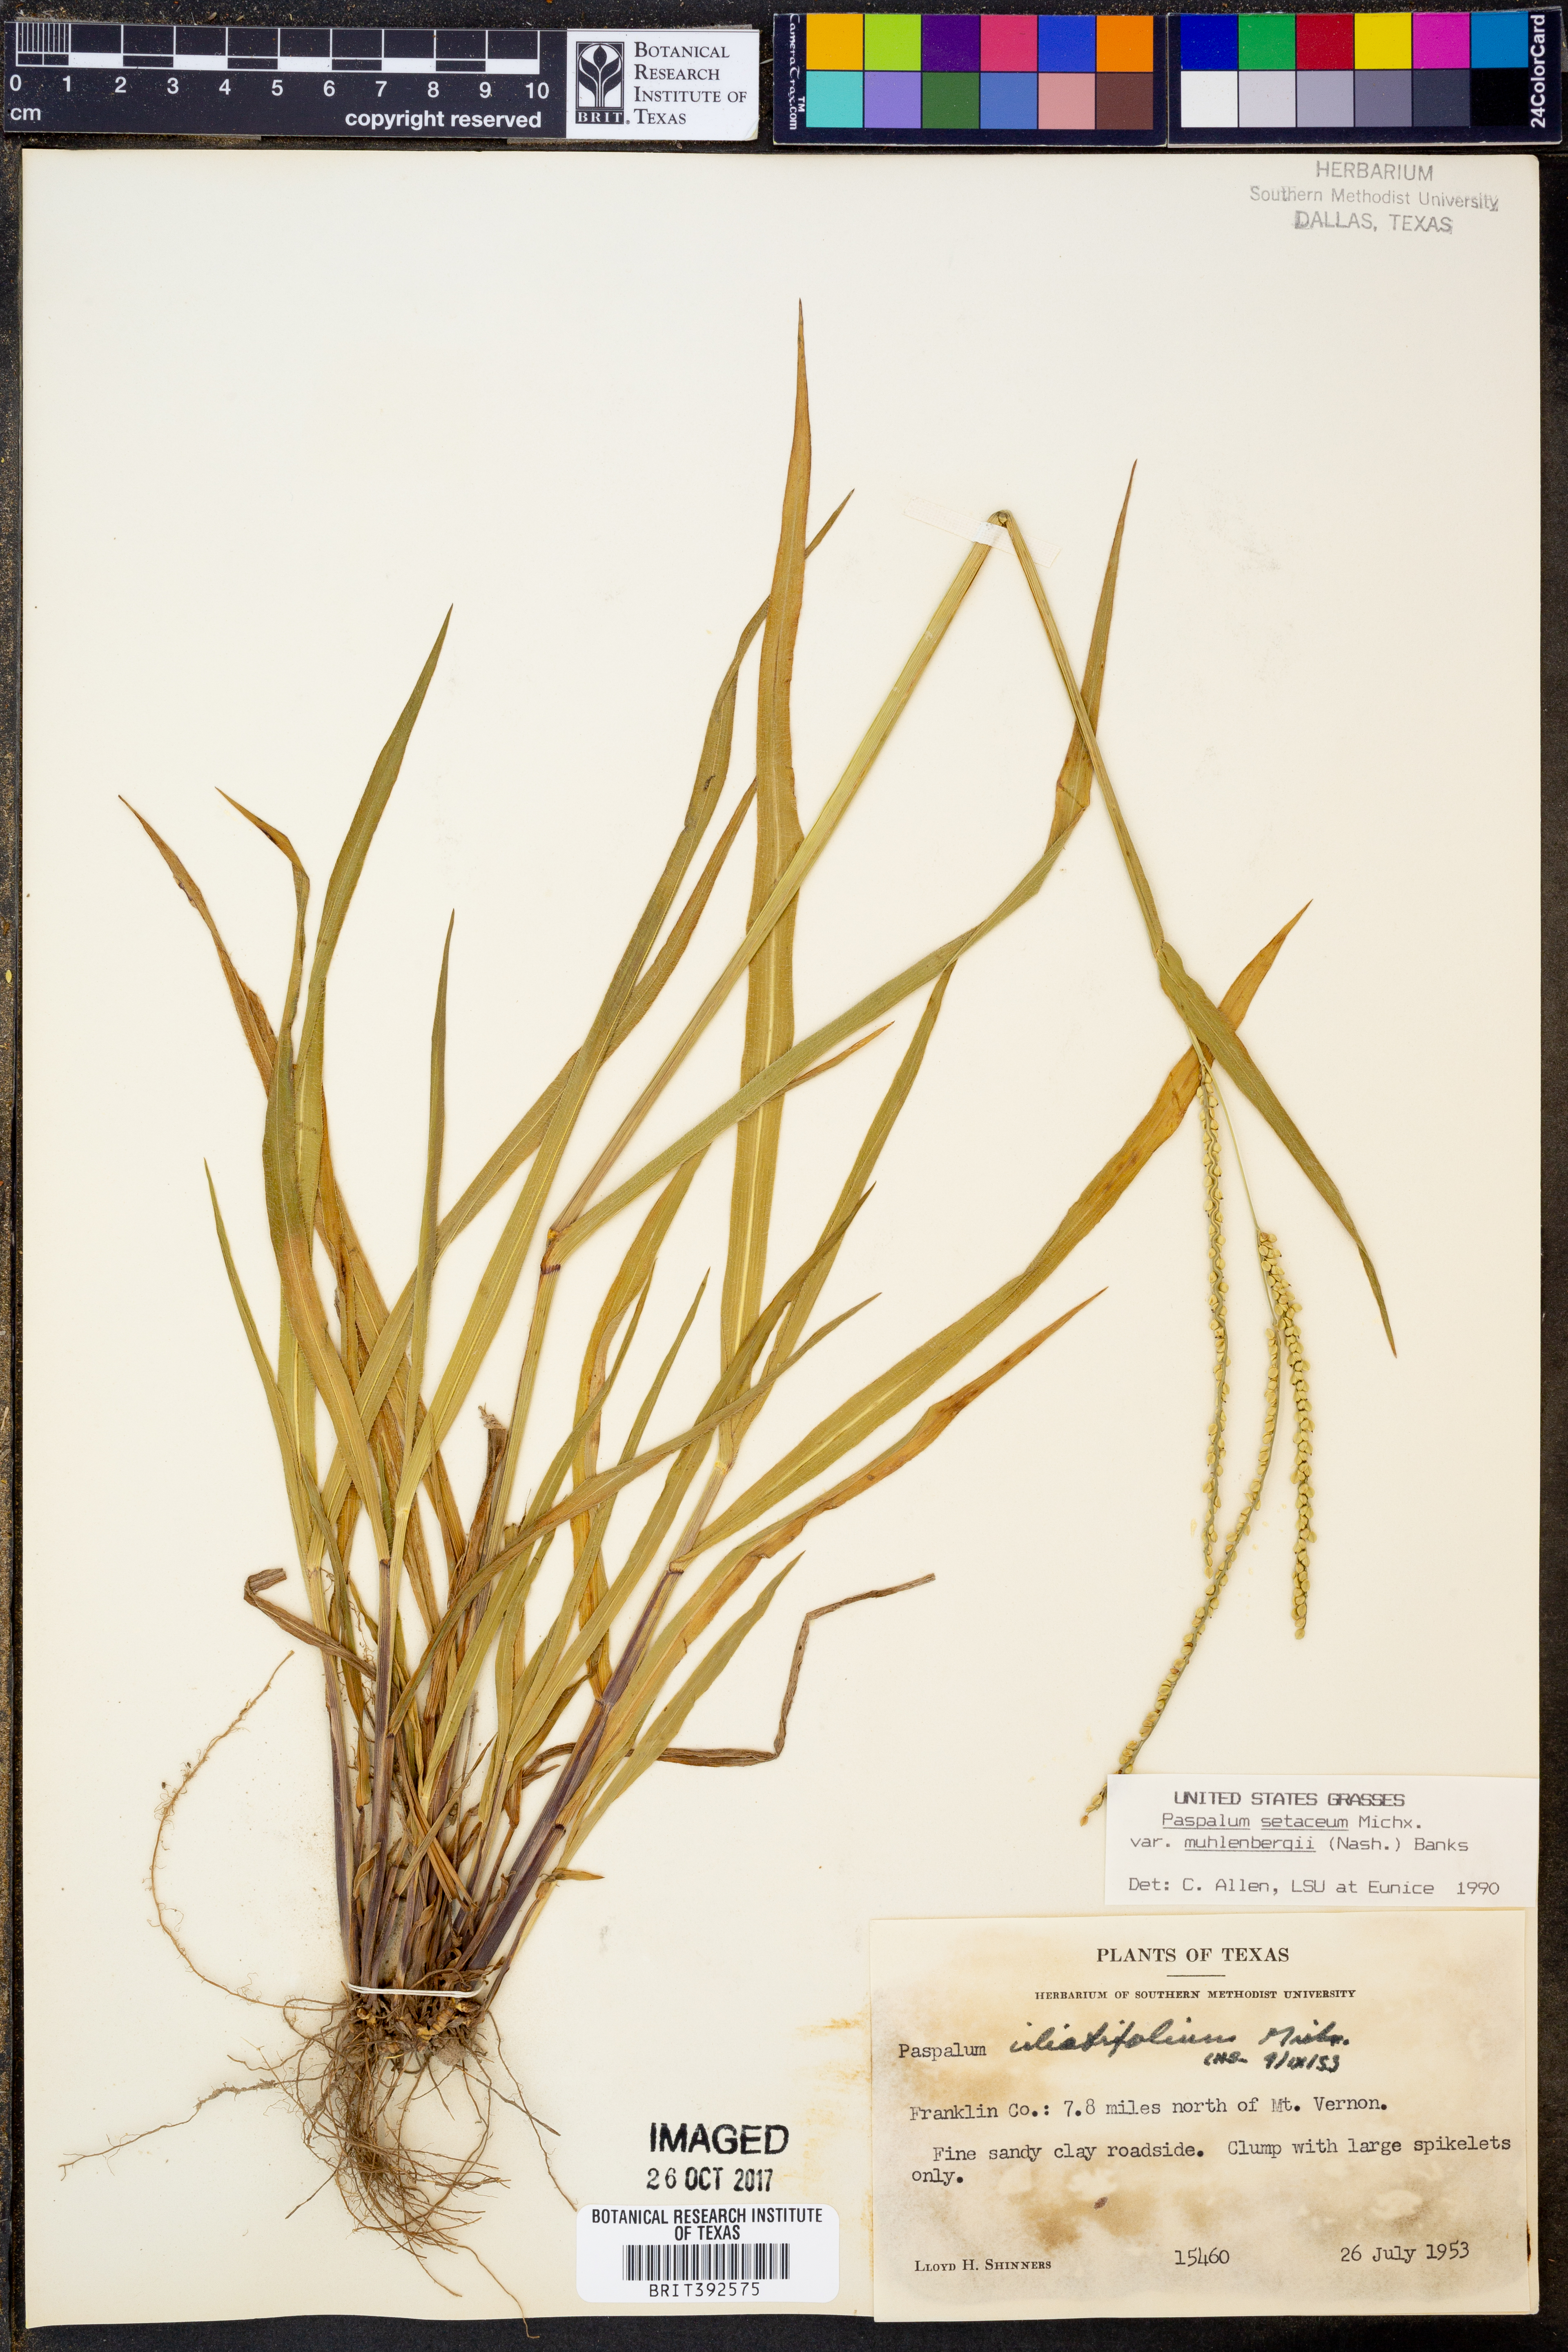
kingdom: Plantae
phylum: Tracheophyta
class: Liliopsida
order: Poales
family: Poaceae
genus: Paspalum
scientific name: Paspalum setaceum
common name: Slender paspalum
